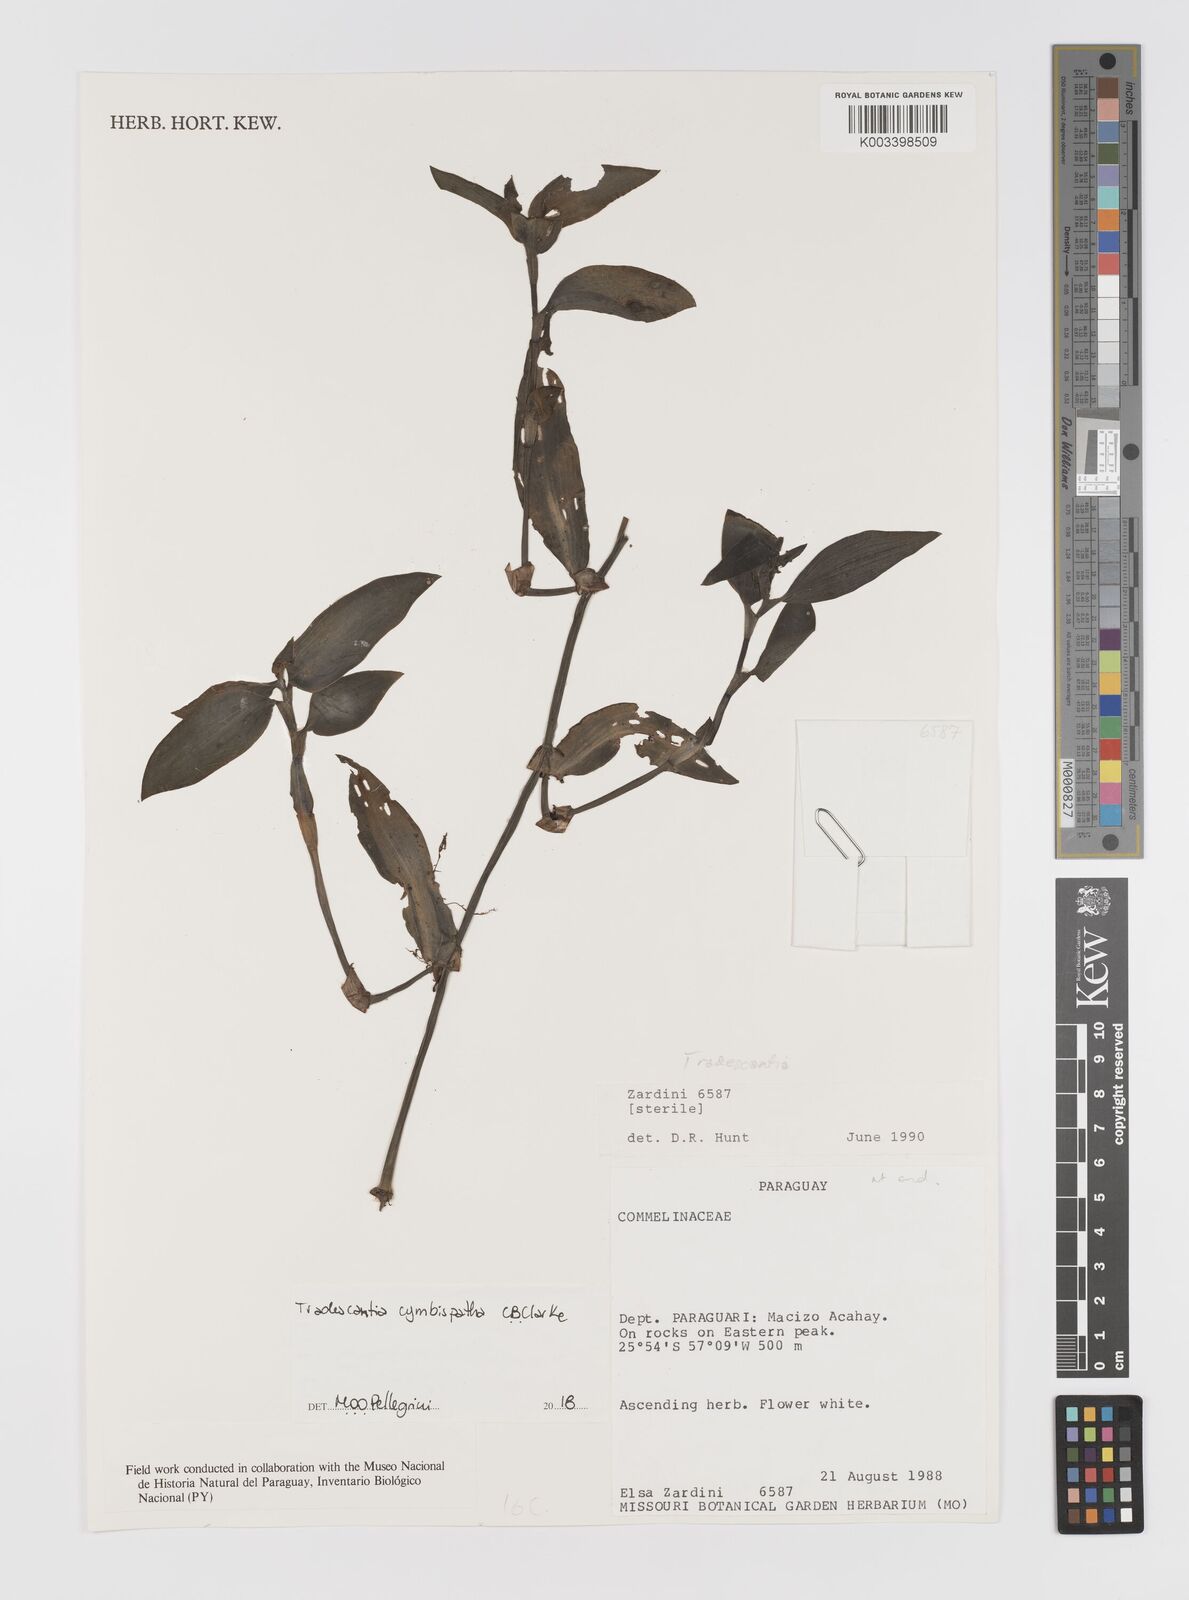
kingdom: Plantae
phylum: Tracheophyta
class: Liliopsida
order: Commelinales
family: Commelinaceae
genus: Tradescantia
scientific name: Tradescantia cymbispatha
